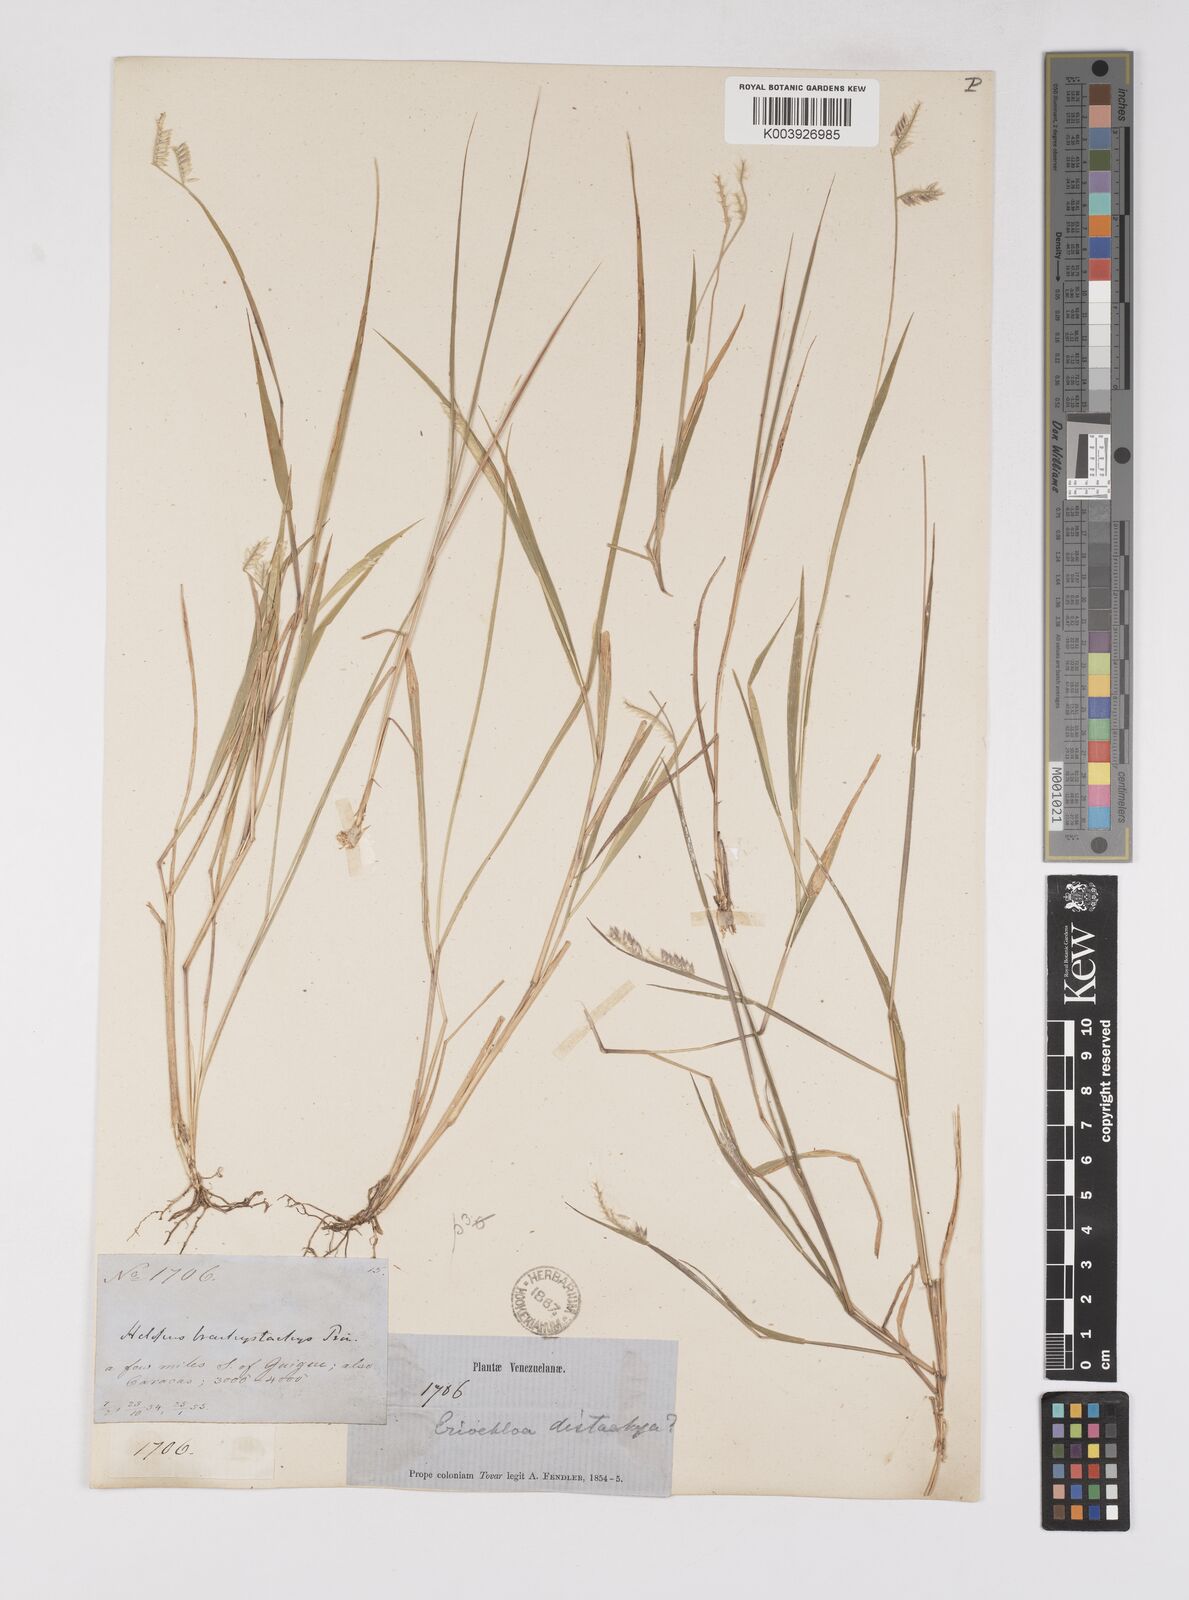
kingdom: Plantae
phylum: Tracheophyta
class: Liliopsida
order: Poales
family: Poaceae
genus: Eriochloa
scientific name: Eriochloa distachya
